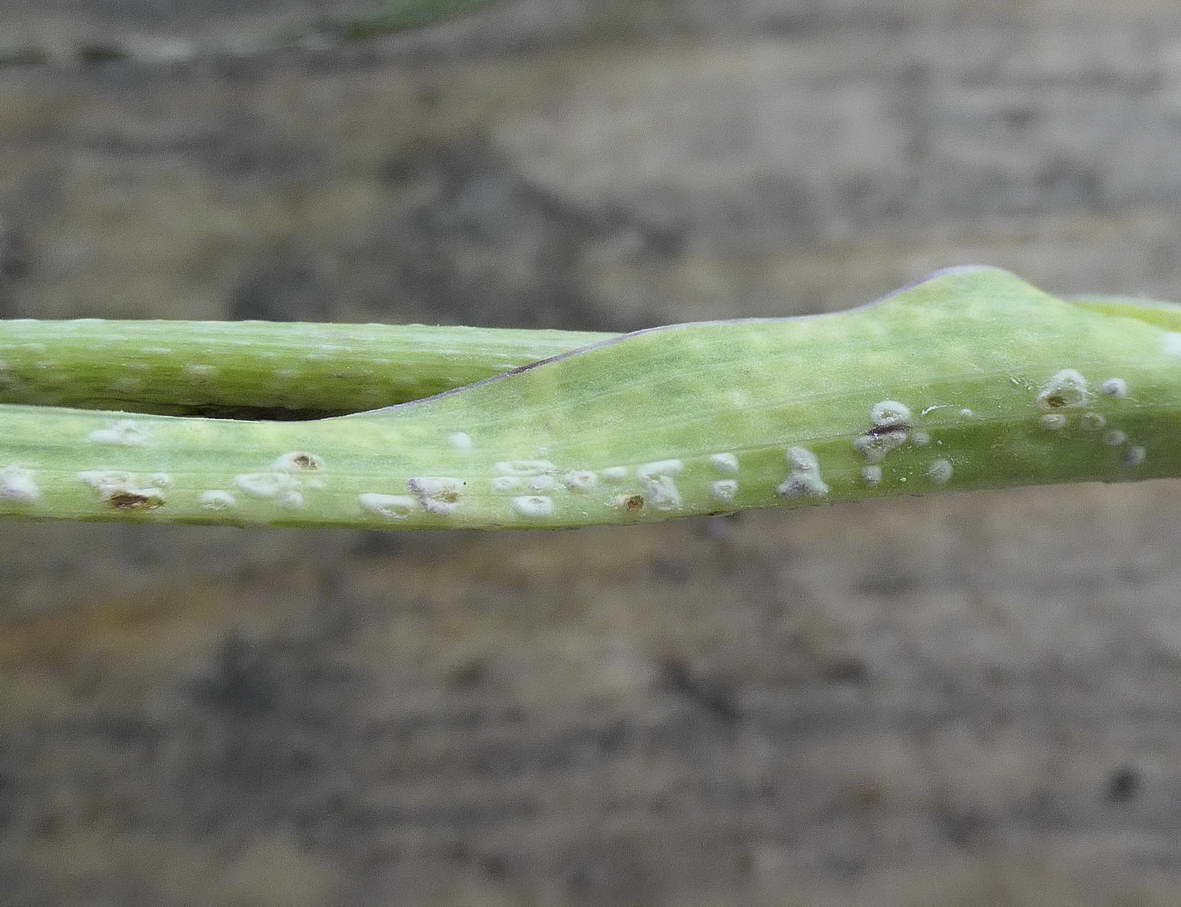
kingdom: Chromista
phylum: Oomycota
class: Peronosporea
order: Albuginales
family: Albuginaceae
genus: Pustula
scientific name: Pustula tragopogonis
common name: Sunflower white rust
